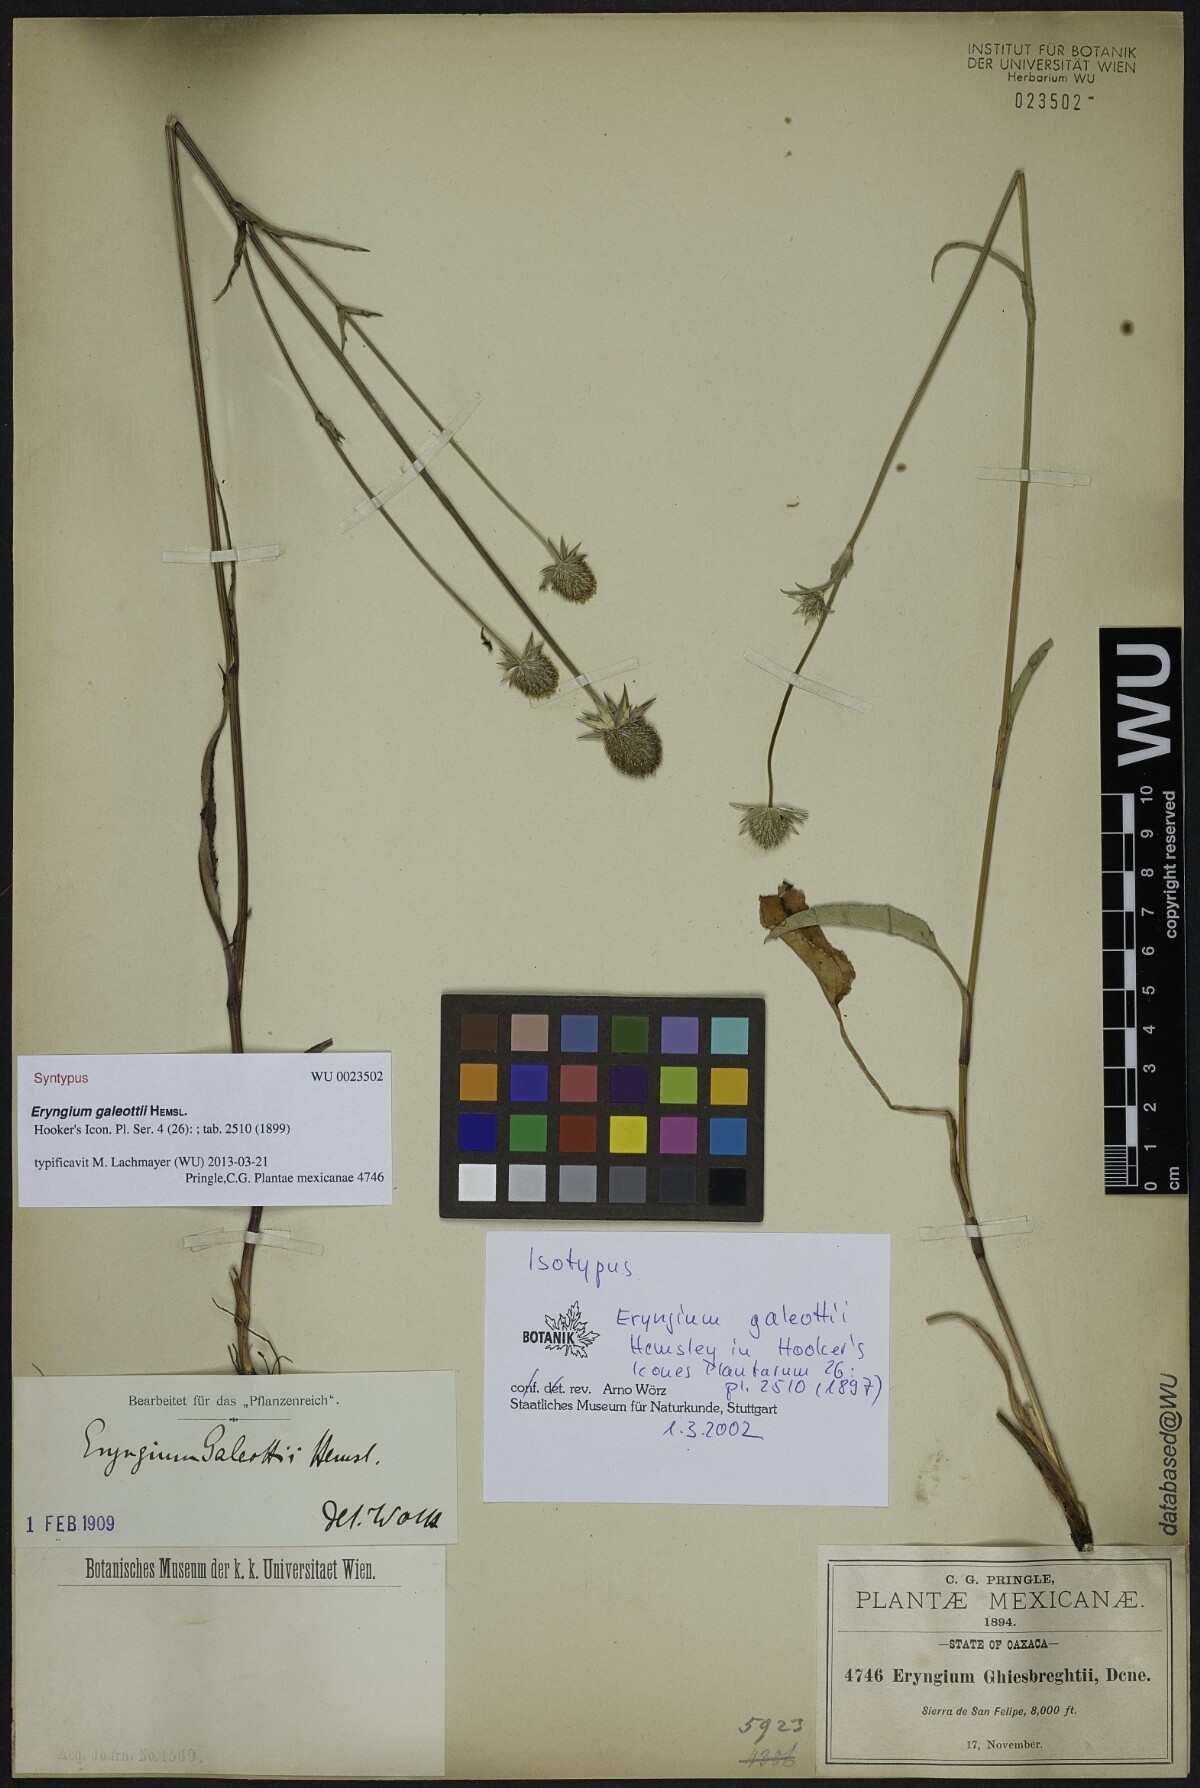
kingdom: Plantae
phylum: Tracheophyta
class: Magnoliopsida
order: Apiales
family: Apiaceae
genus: Eryngium
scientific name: Eryngium galeottii
